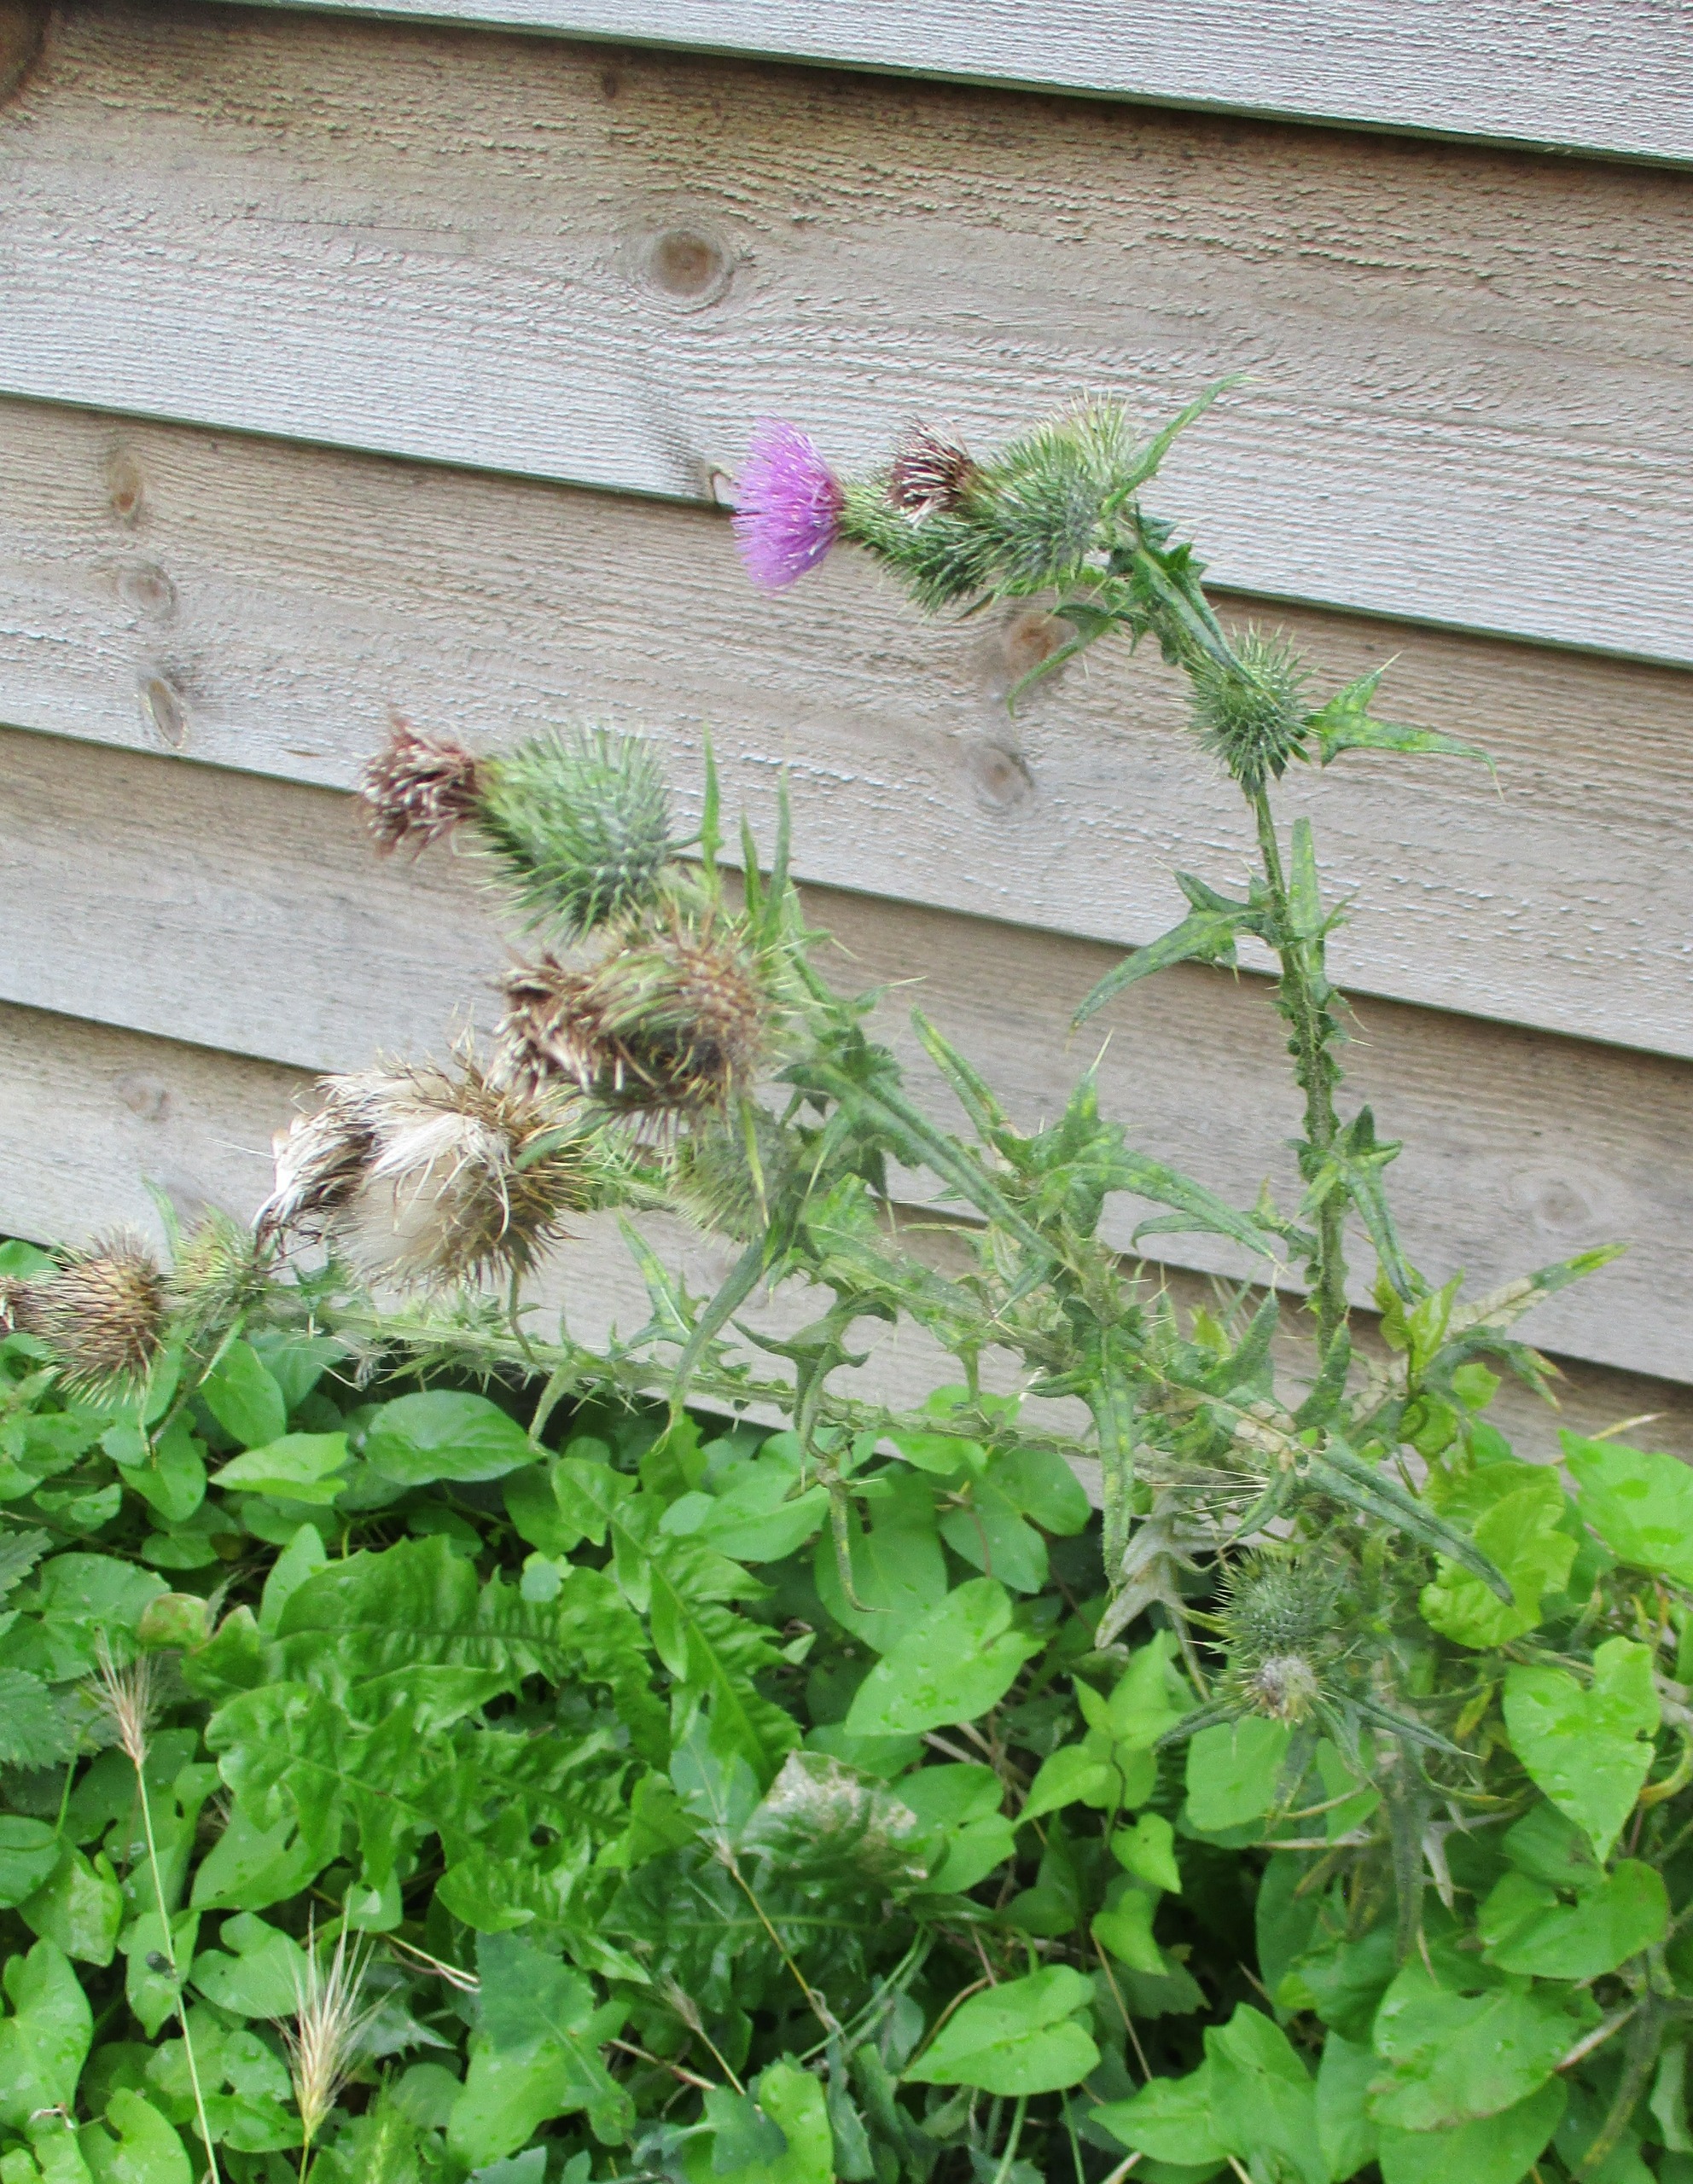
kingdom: Plantae
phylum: Tracheophyta
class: Magnoliopsida
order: Asterales
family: Asteraceae
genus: Cirsium
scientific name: Cirsium vulgare
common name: Horse-tidsel
